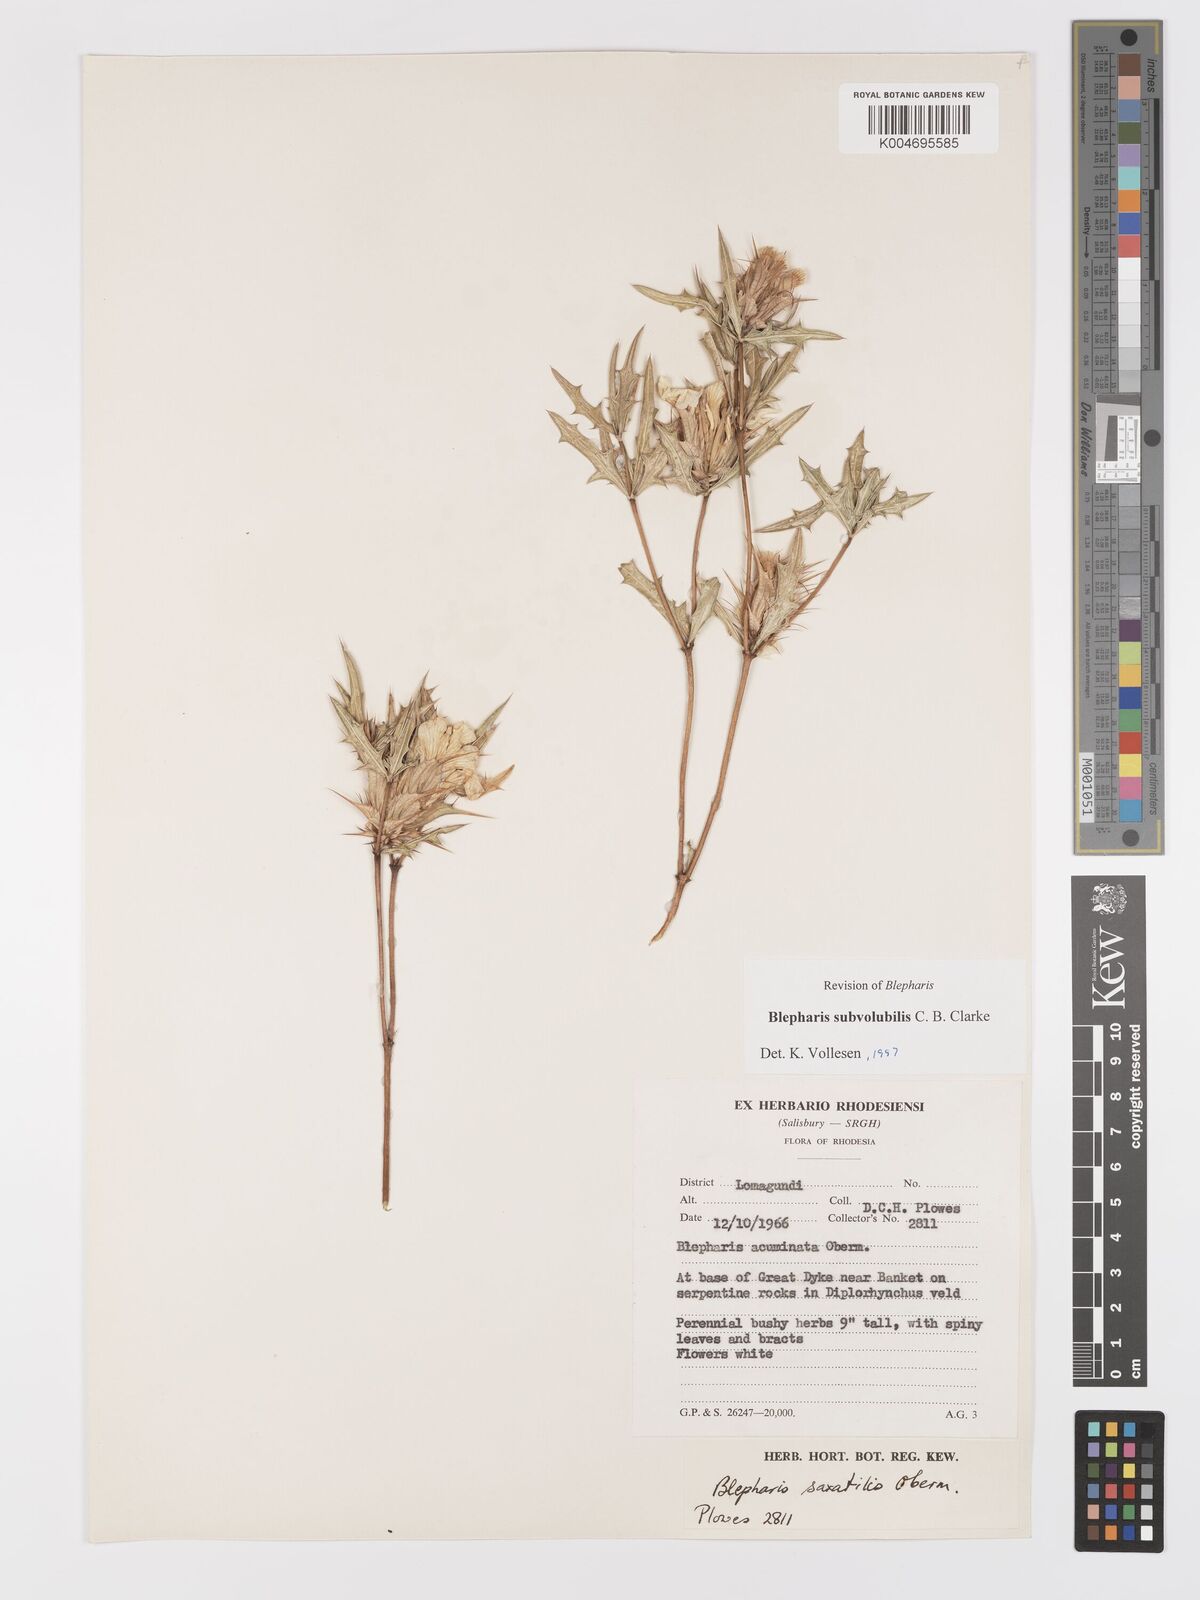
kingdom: Plantae
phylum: Tracheophyta
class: Magnoliopsida
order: Lamiales
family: Acanthaceae
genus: Blepharis
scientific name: Blepharis subvolubilis
